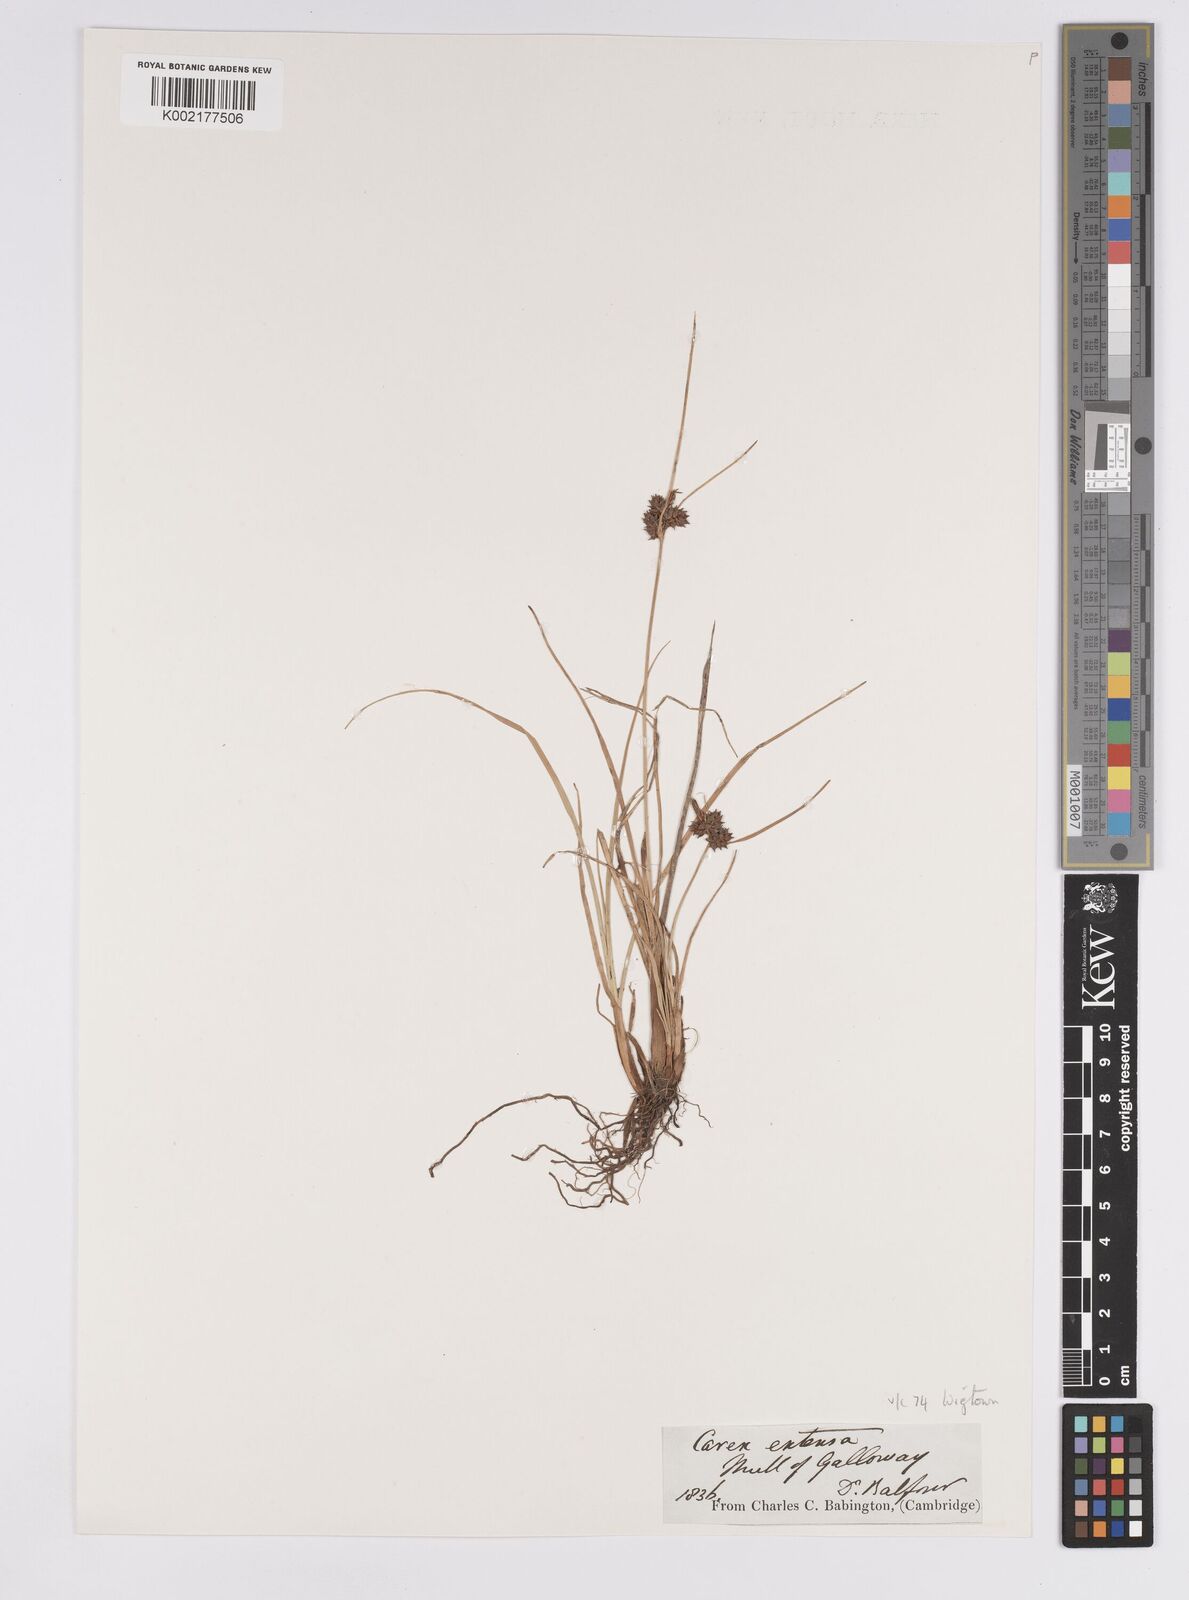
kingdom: Plantae
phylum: Tracheophyta
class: Liliopsida
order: Poales
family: Cyperaceae
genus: Carex
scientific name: Carex extensa
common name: Long-bracted sedge
